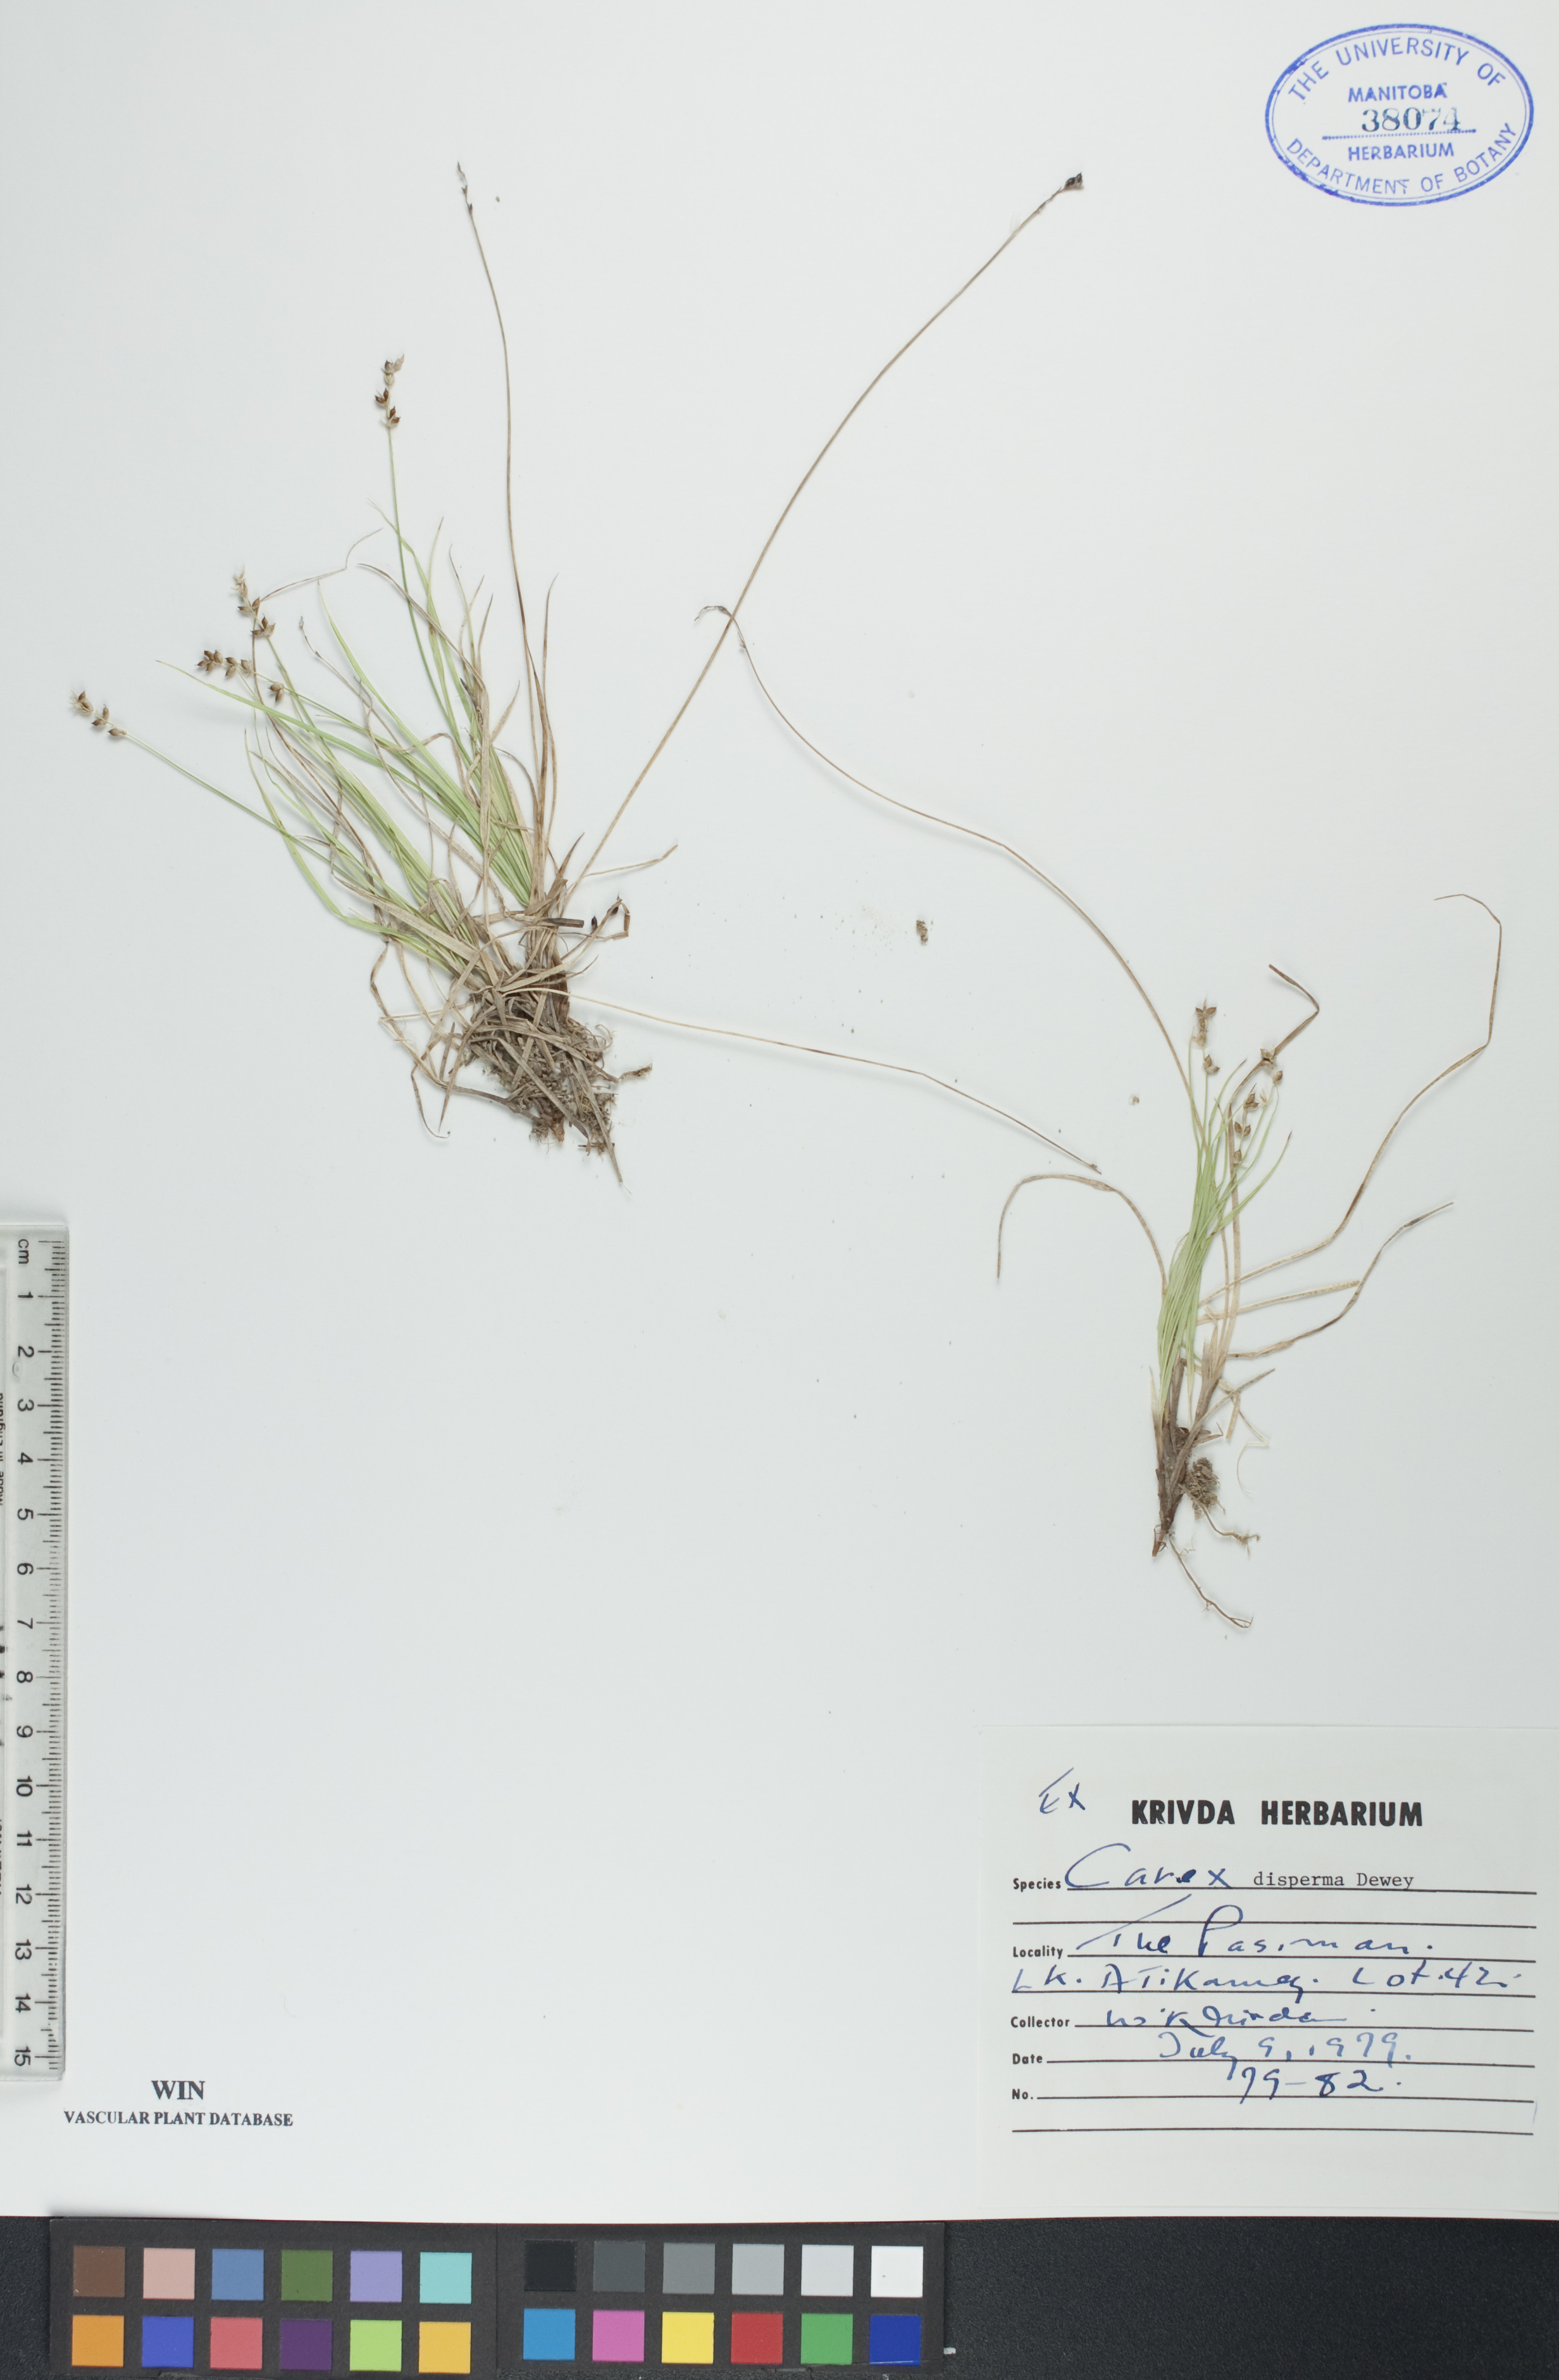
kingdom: Plantae
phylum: Tracheophyta
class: Liliopsida
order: Poales
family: Cyperaceae
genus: Carex
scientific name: Carex disperma
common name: Short-leaved sedge
